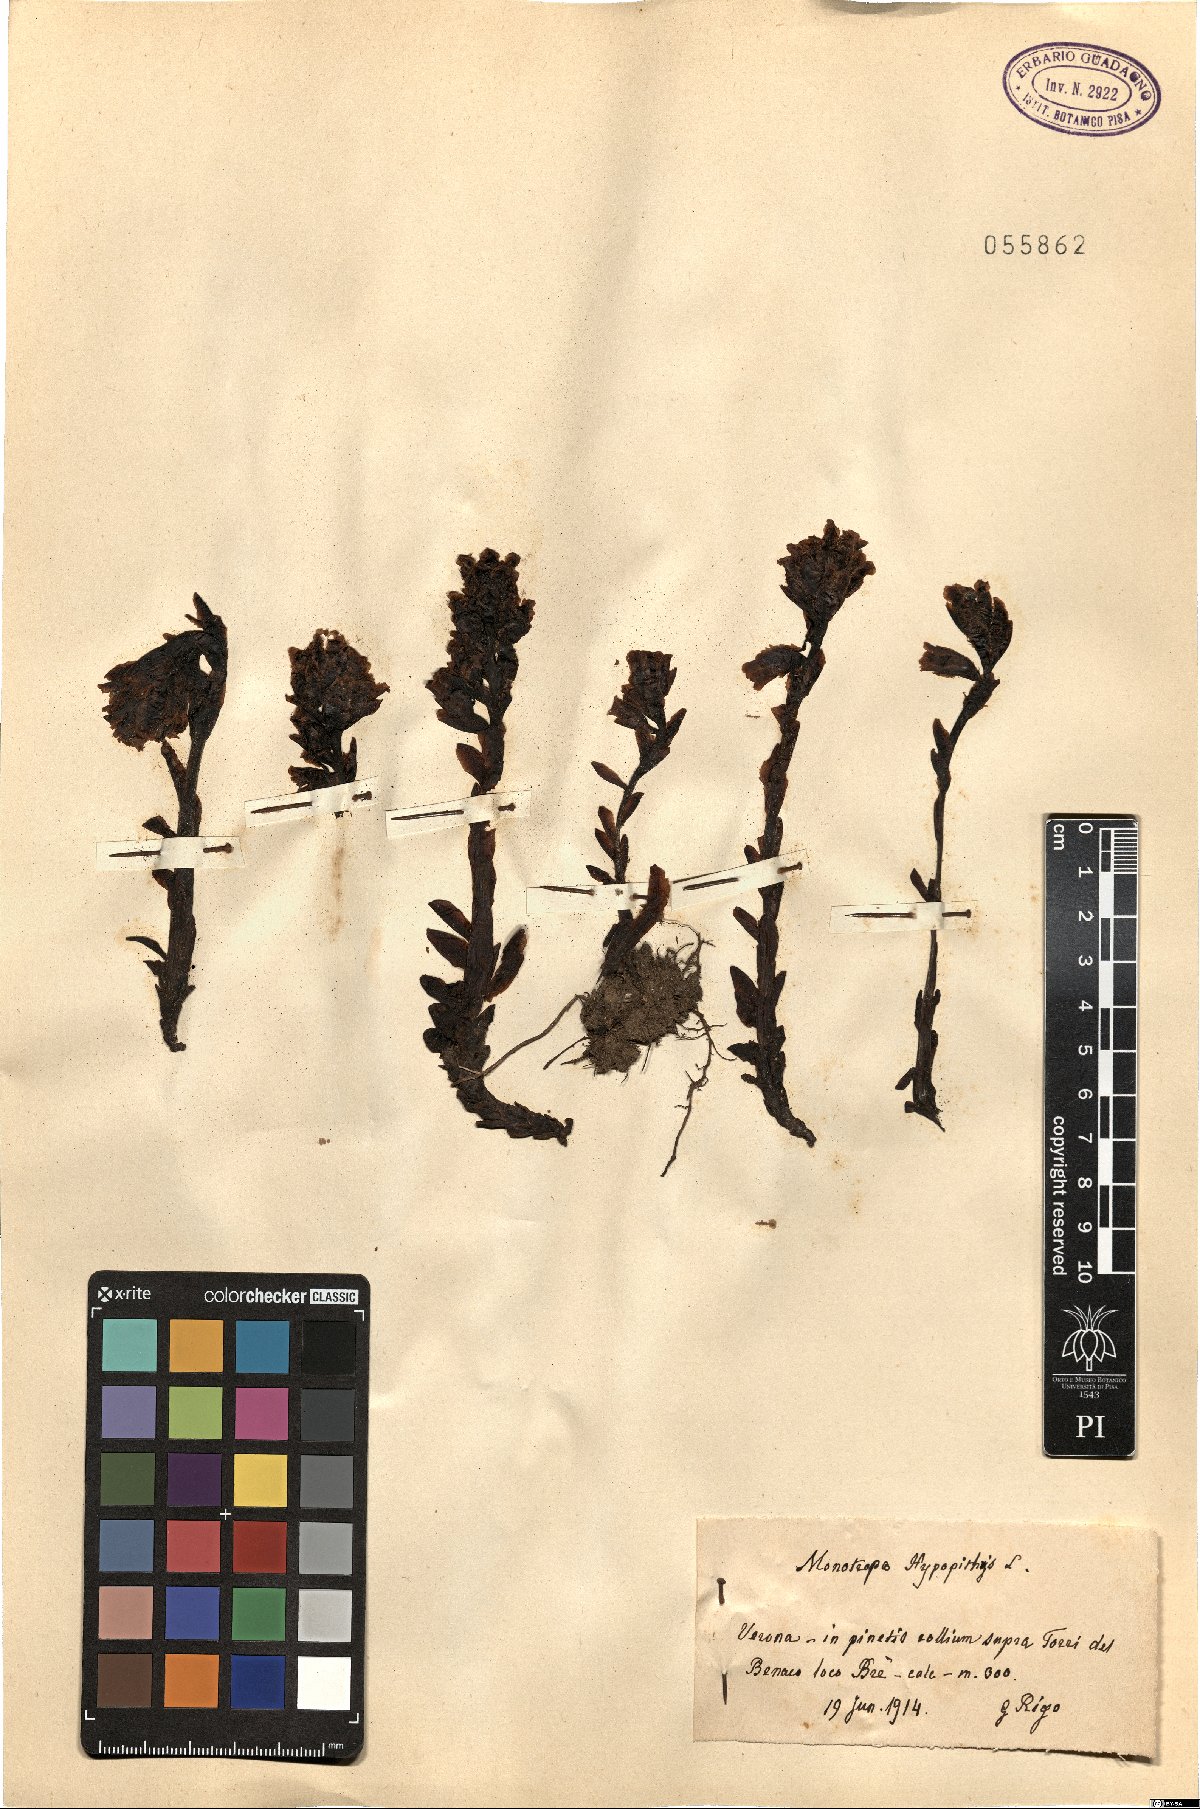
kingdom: Plantae
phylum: Tracheophyta
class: Magnoliopsida
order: Ericales
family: Ericaceae
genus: Hypopitys
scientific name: Hypopitys monotropa
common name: Yellow bird's-nest
